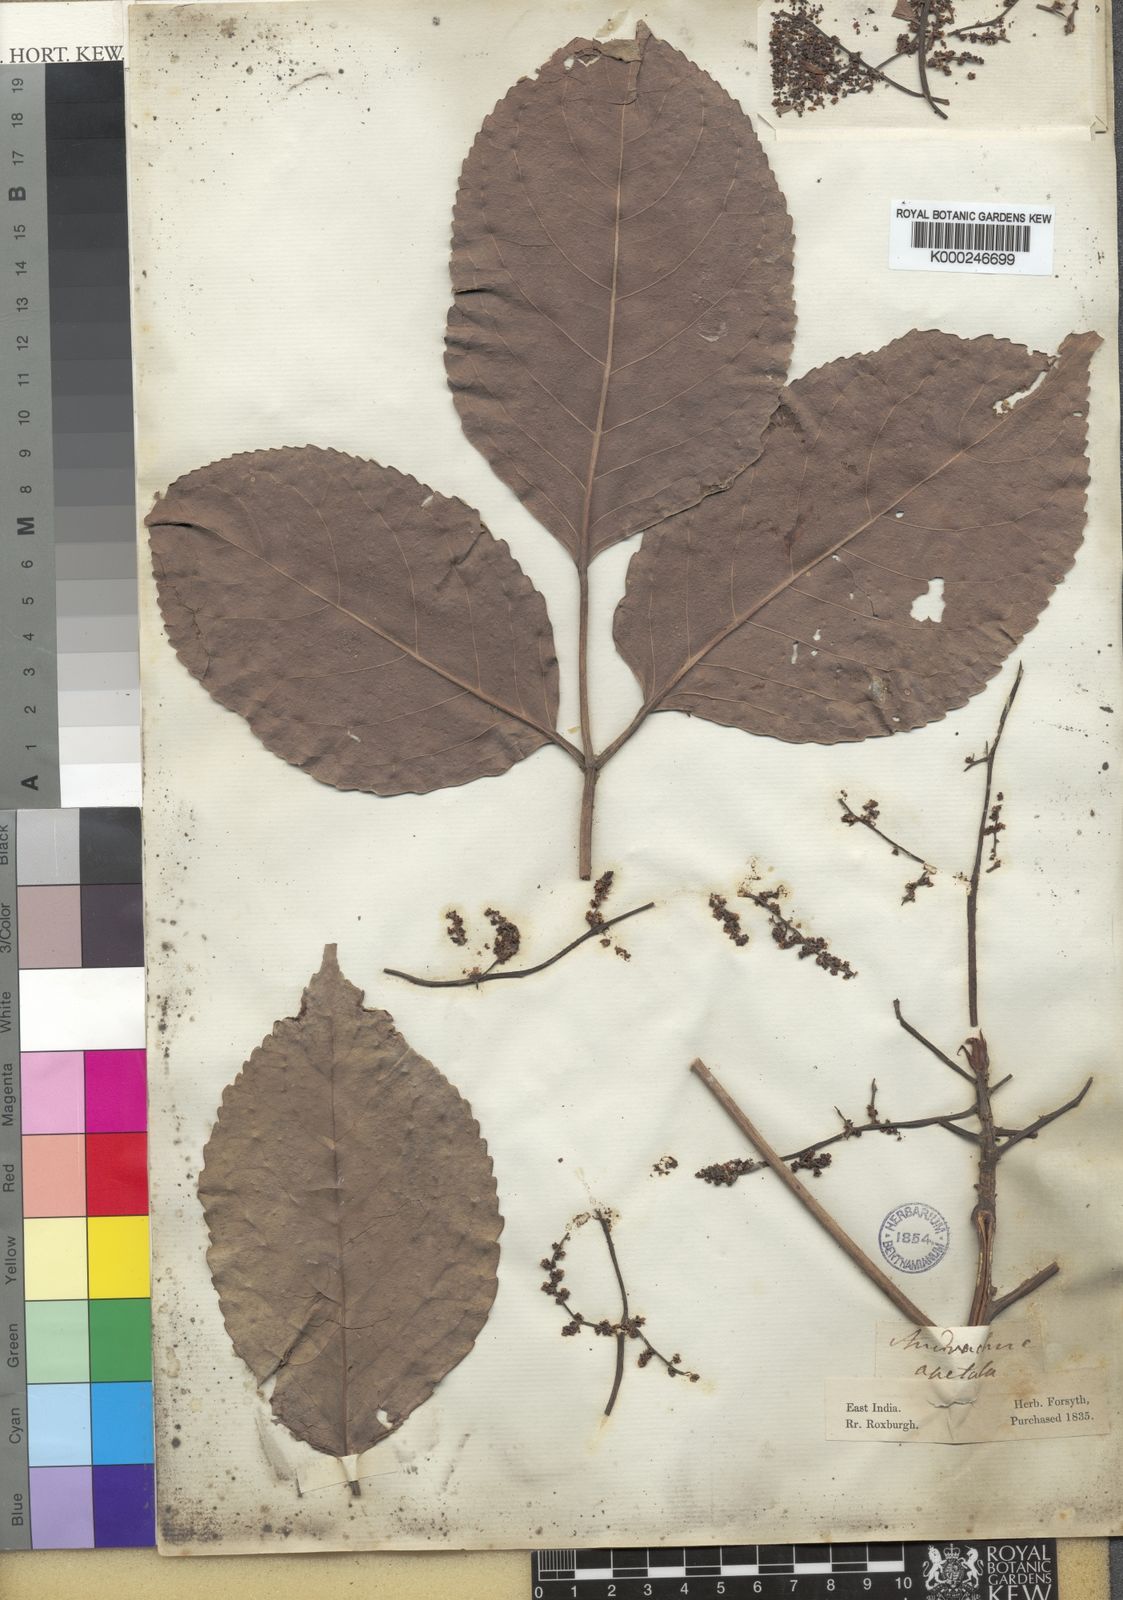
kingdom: Plantae
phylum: Tracheophyta
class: Magnoliopsida
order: Malpighiales
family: Phyllanthaceae
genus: Bischofia
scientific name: Bischofia javanica
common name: Javanese bishopwood
